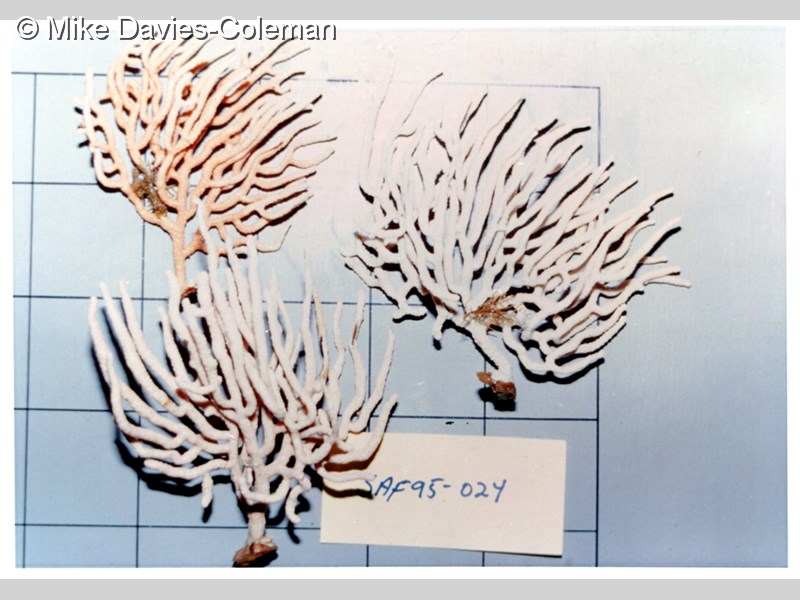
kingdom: Animalia
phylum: Cnidaria
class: Anthozoa
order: Malacalcyonacea
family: Eunicellidae
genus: Eunicella
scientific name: Eunicella microthela
